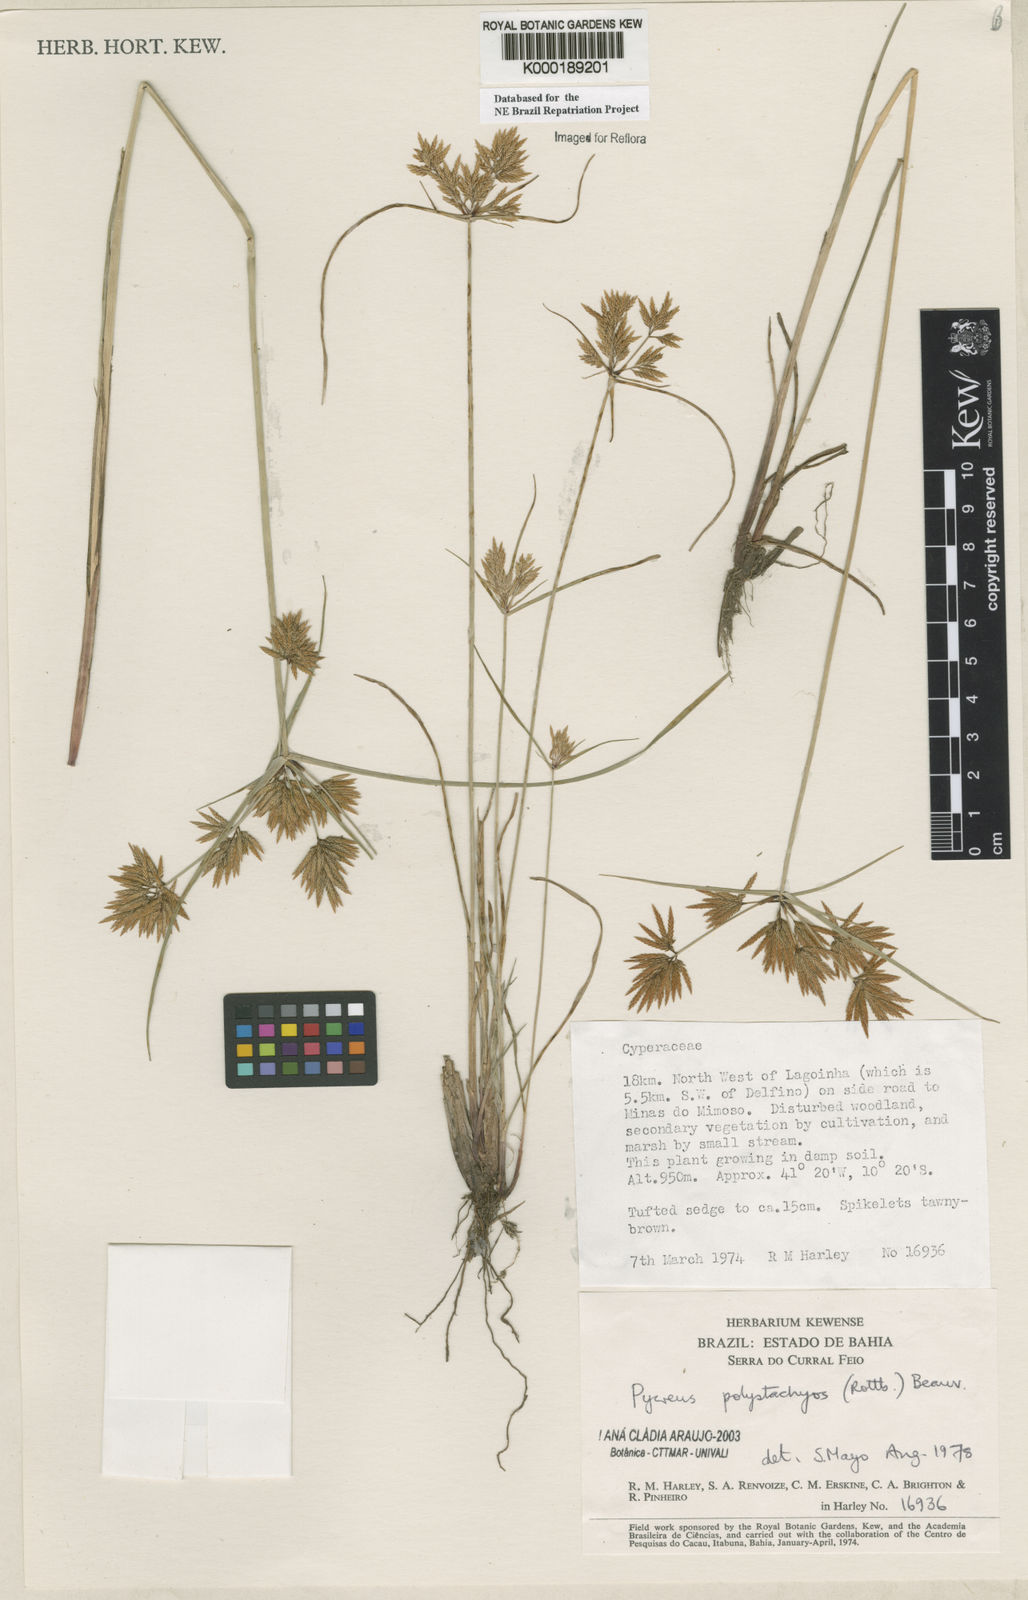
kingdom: Plantae
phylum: Tracheophyta
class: Liliopsida
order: Poales
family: Cyperaceae
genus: Cyperus
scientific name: Cyperus polystachyos
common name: Bunchy flat sedge
